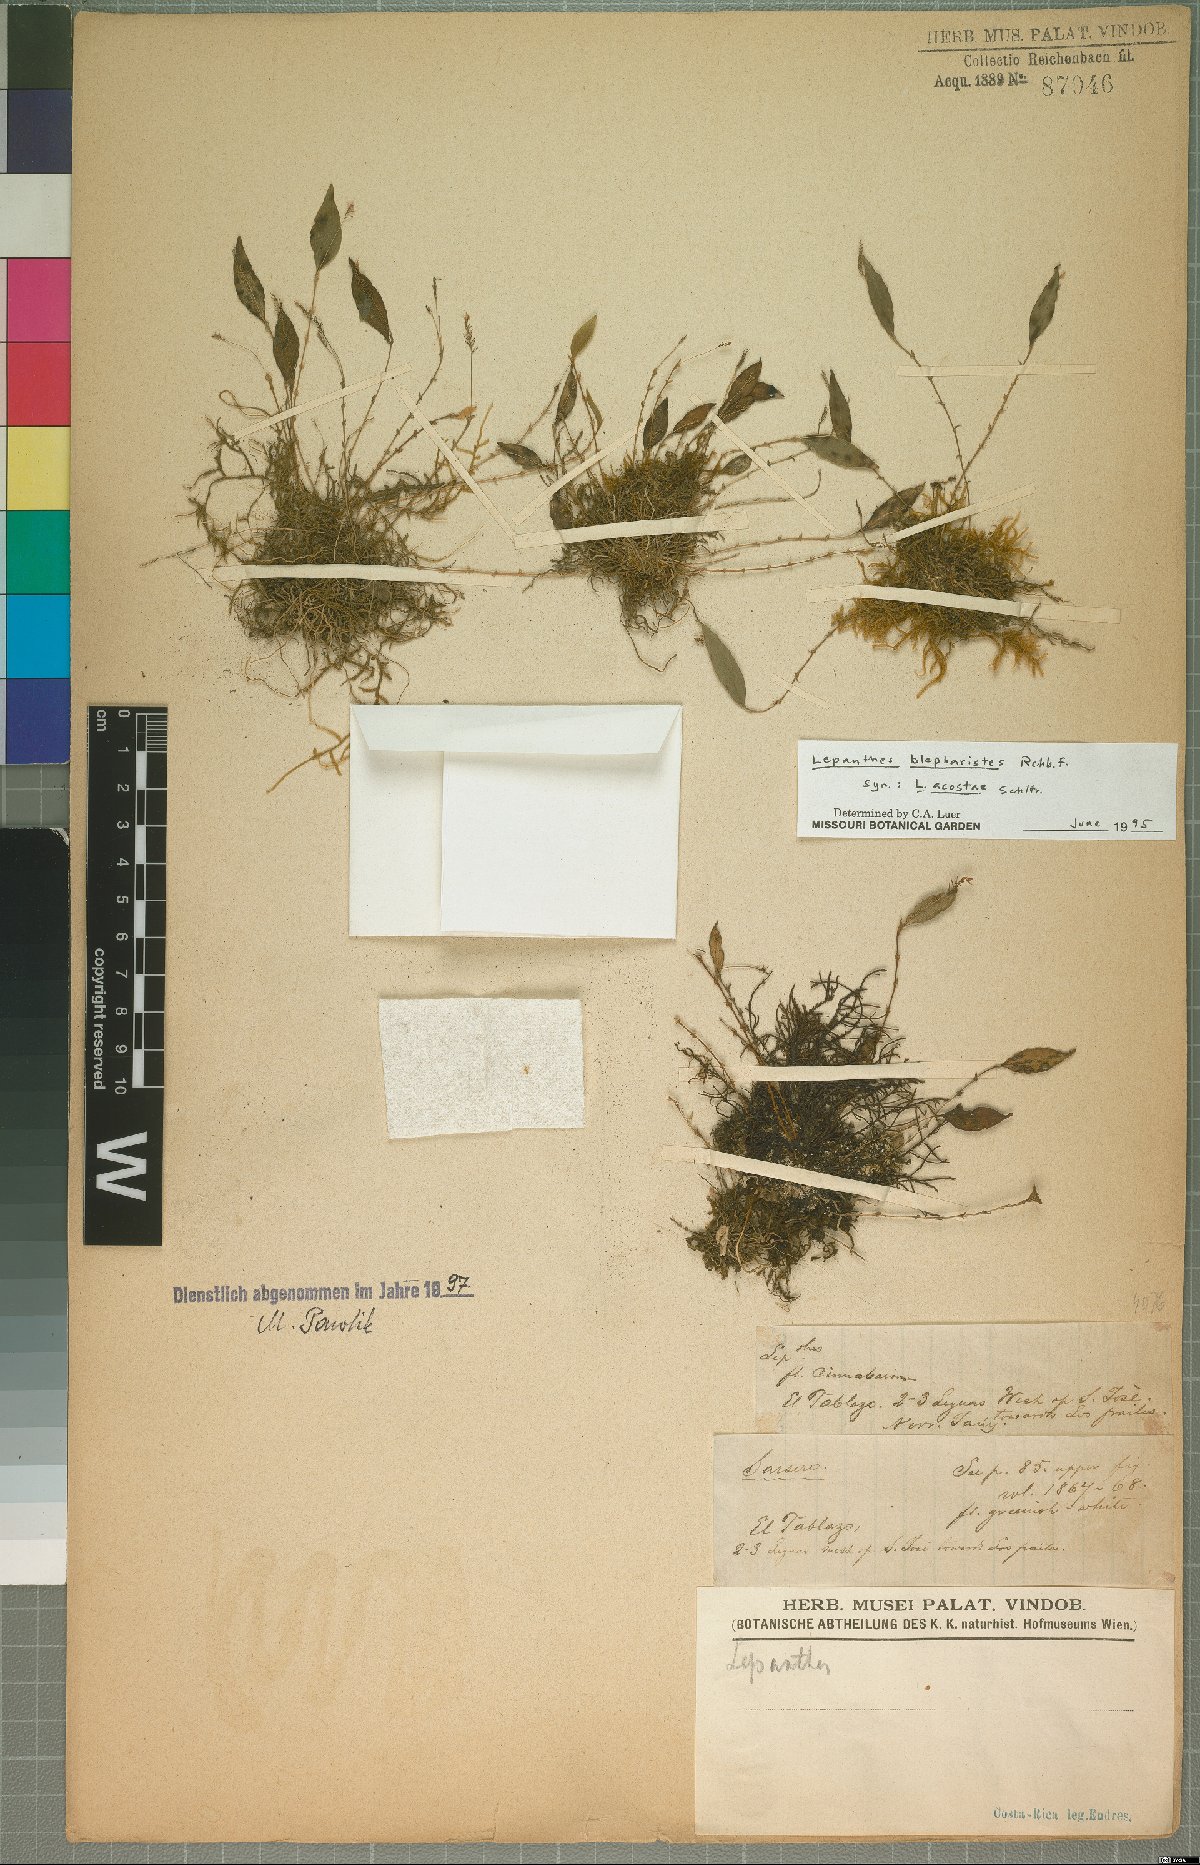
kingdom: Plantae
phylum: Tracheophyta
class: Liliopsida
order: Asparagales
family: Orchidaceae
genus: Lepanthes
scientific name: Lepanthes blepharistes
